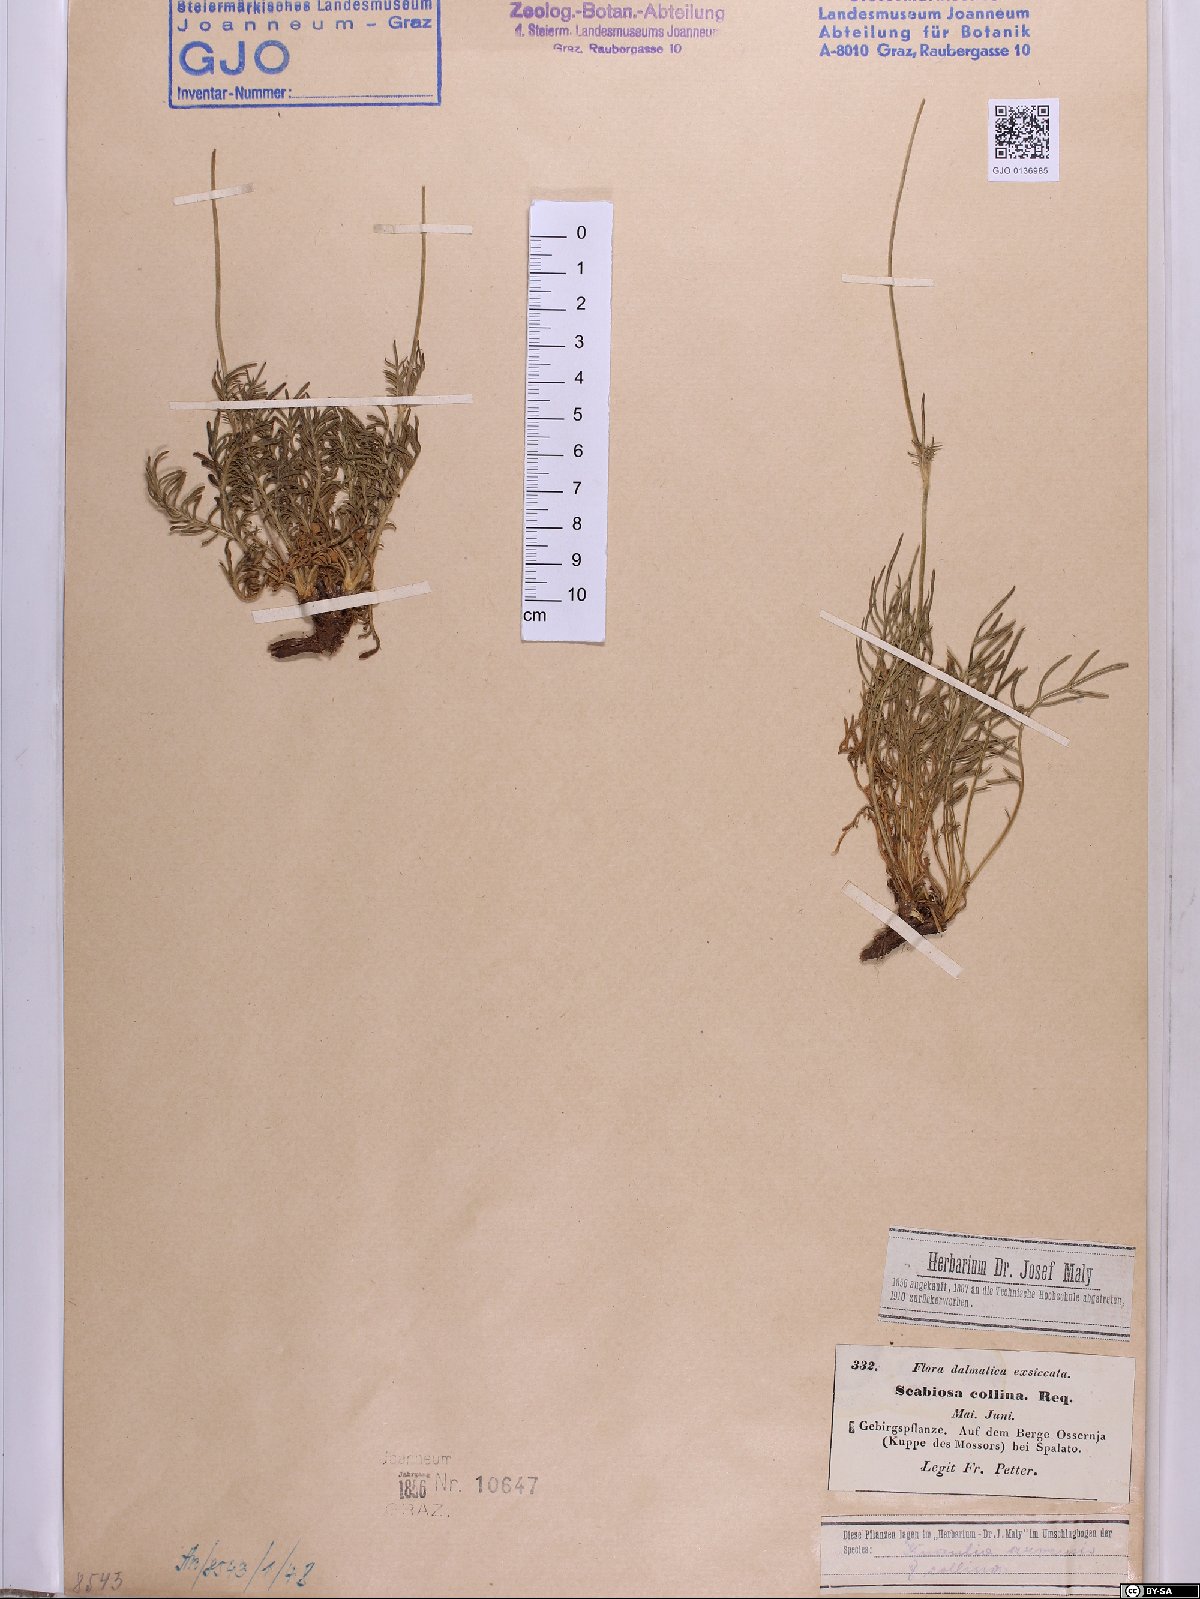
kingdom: Plantae
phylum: Tracheophyta
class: Magnoliopsida
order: Dipsacales
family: Caprifoliaceae
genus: Knautia
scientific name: Knautia collina
